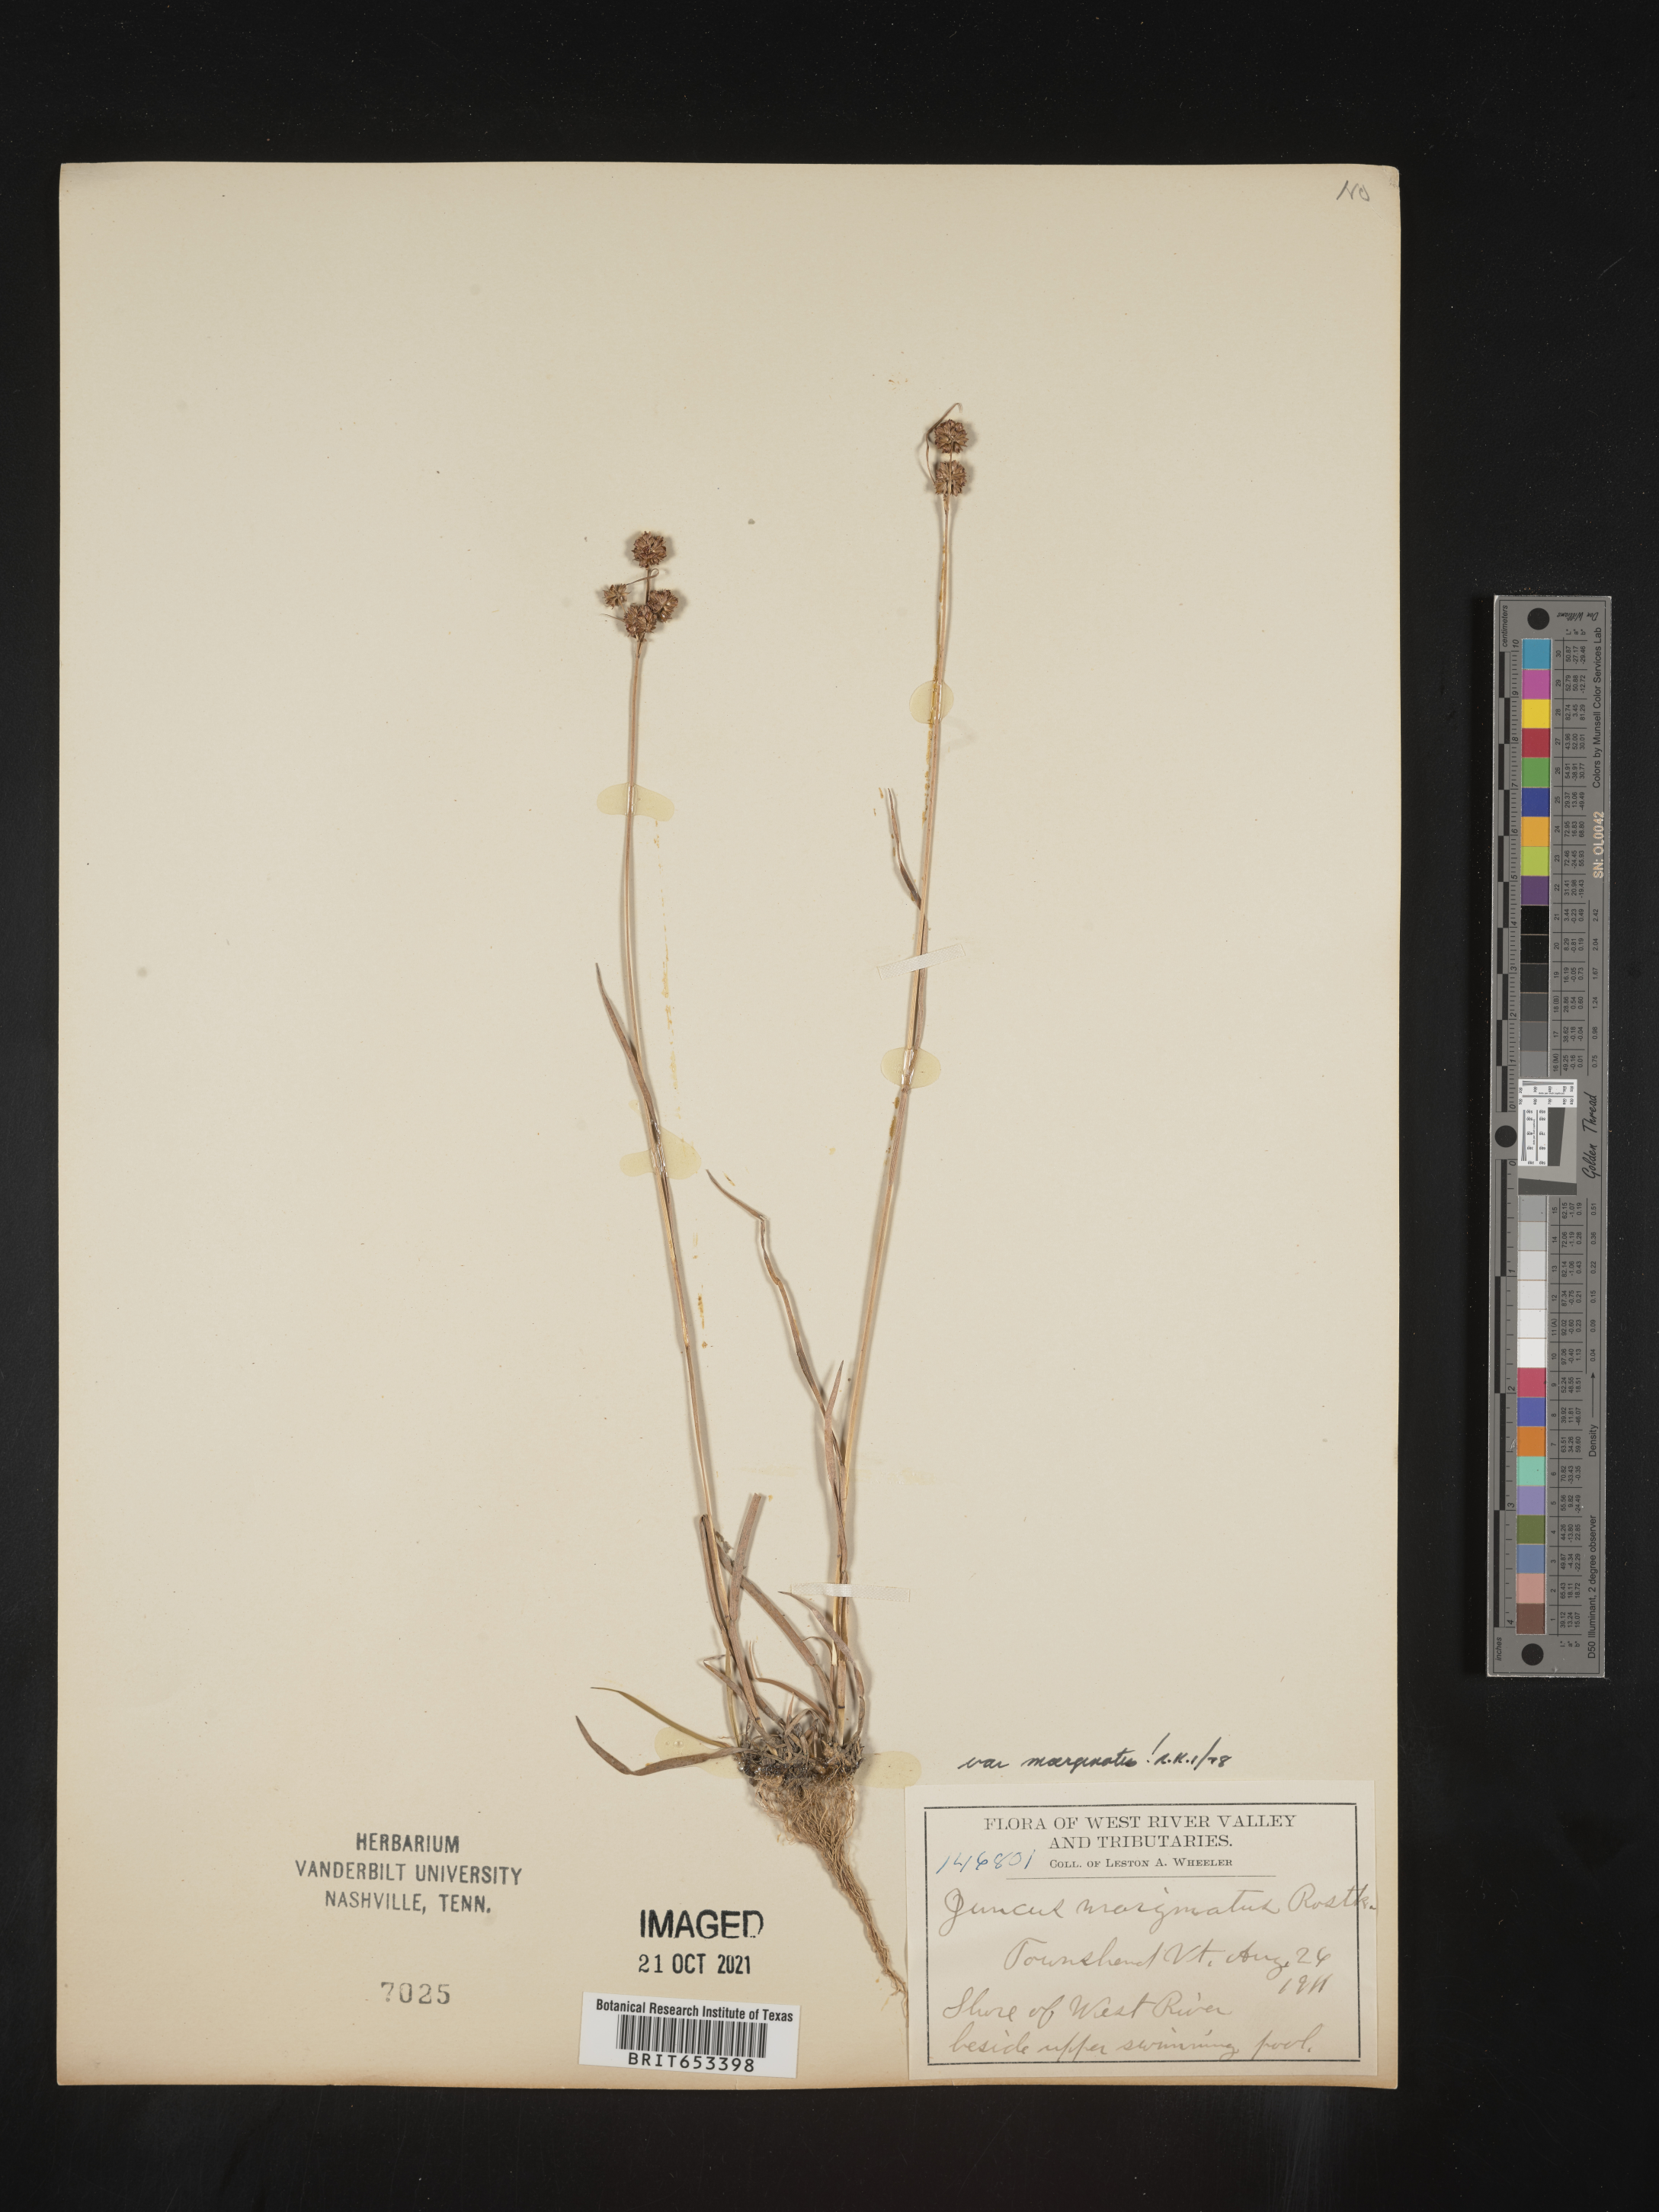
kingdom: Plantae
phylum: Tracheophyta
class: Liliopsida
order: Poales
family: Juncaceae
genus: Juncus
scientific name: Juncus marginatus
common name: Grass-leaf rush
